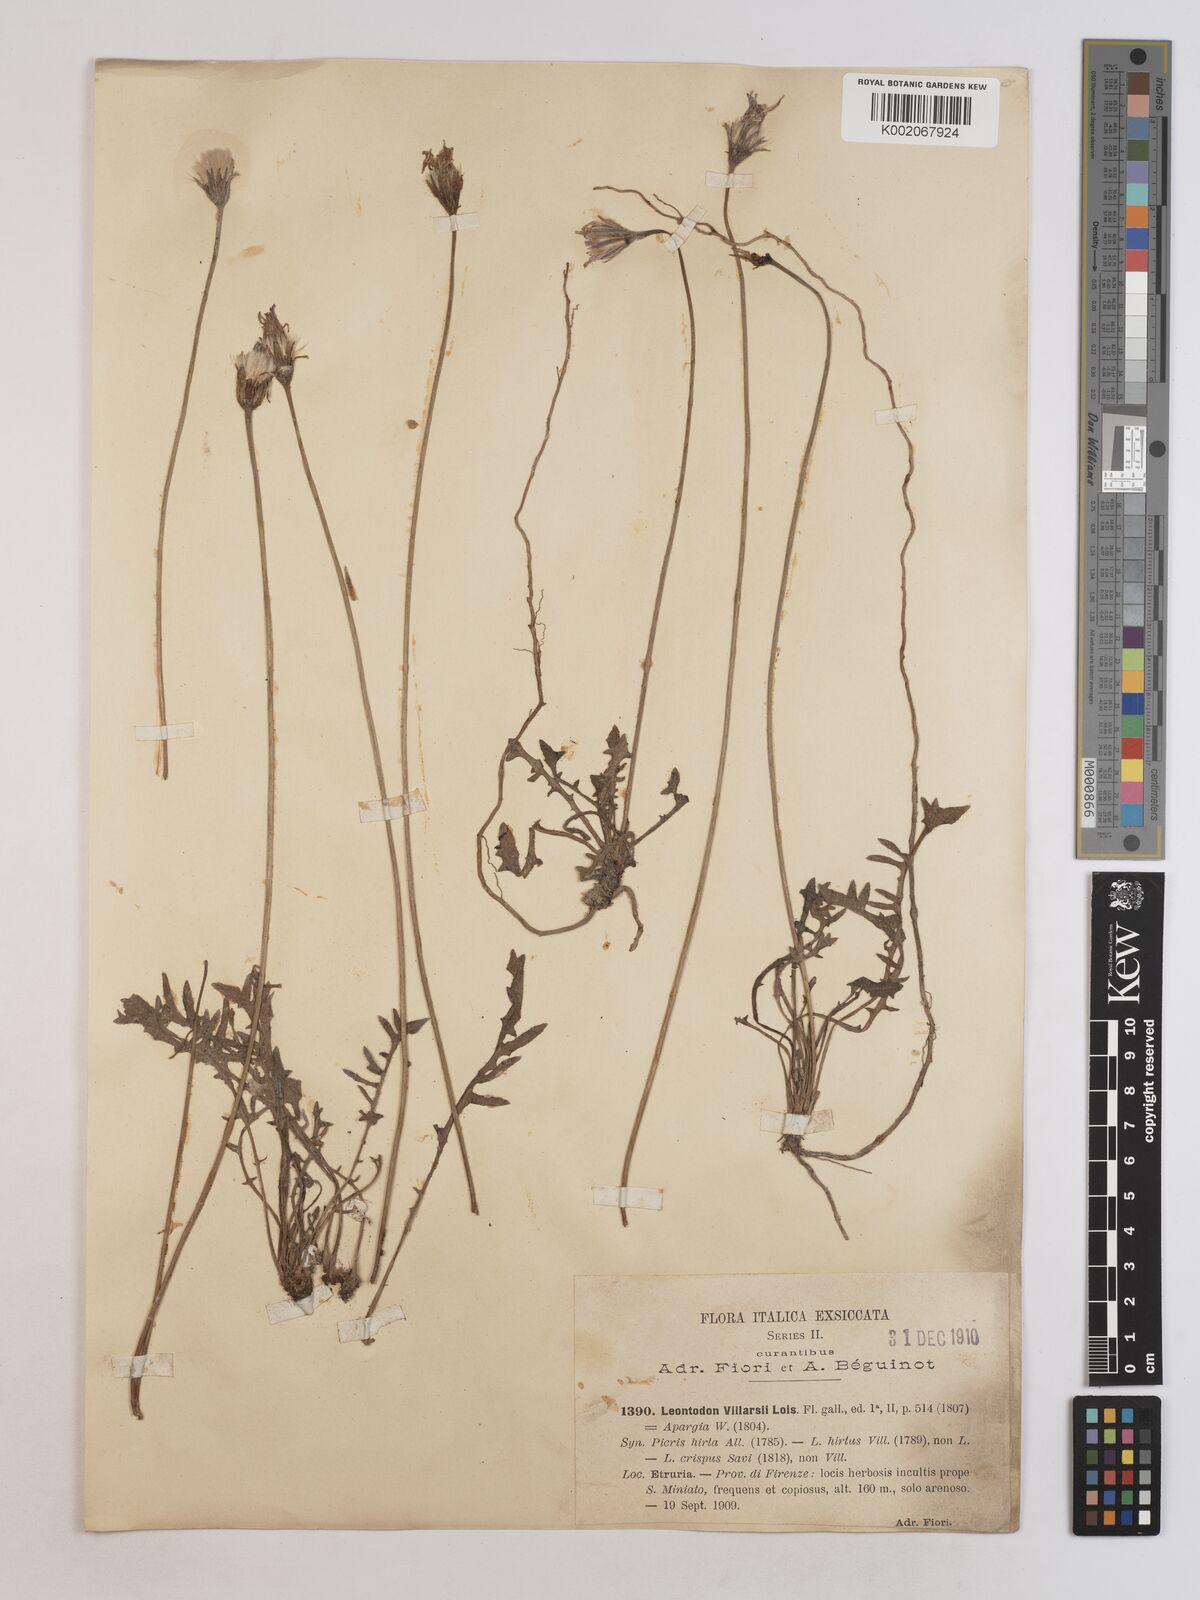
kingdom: Plantae
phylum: Tracheophyta
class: Magnoliopsida
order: Asterales
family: Asteraceae
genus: Leontodon
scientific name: Leontodon hirtus
